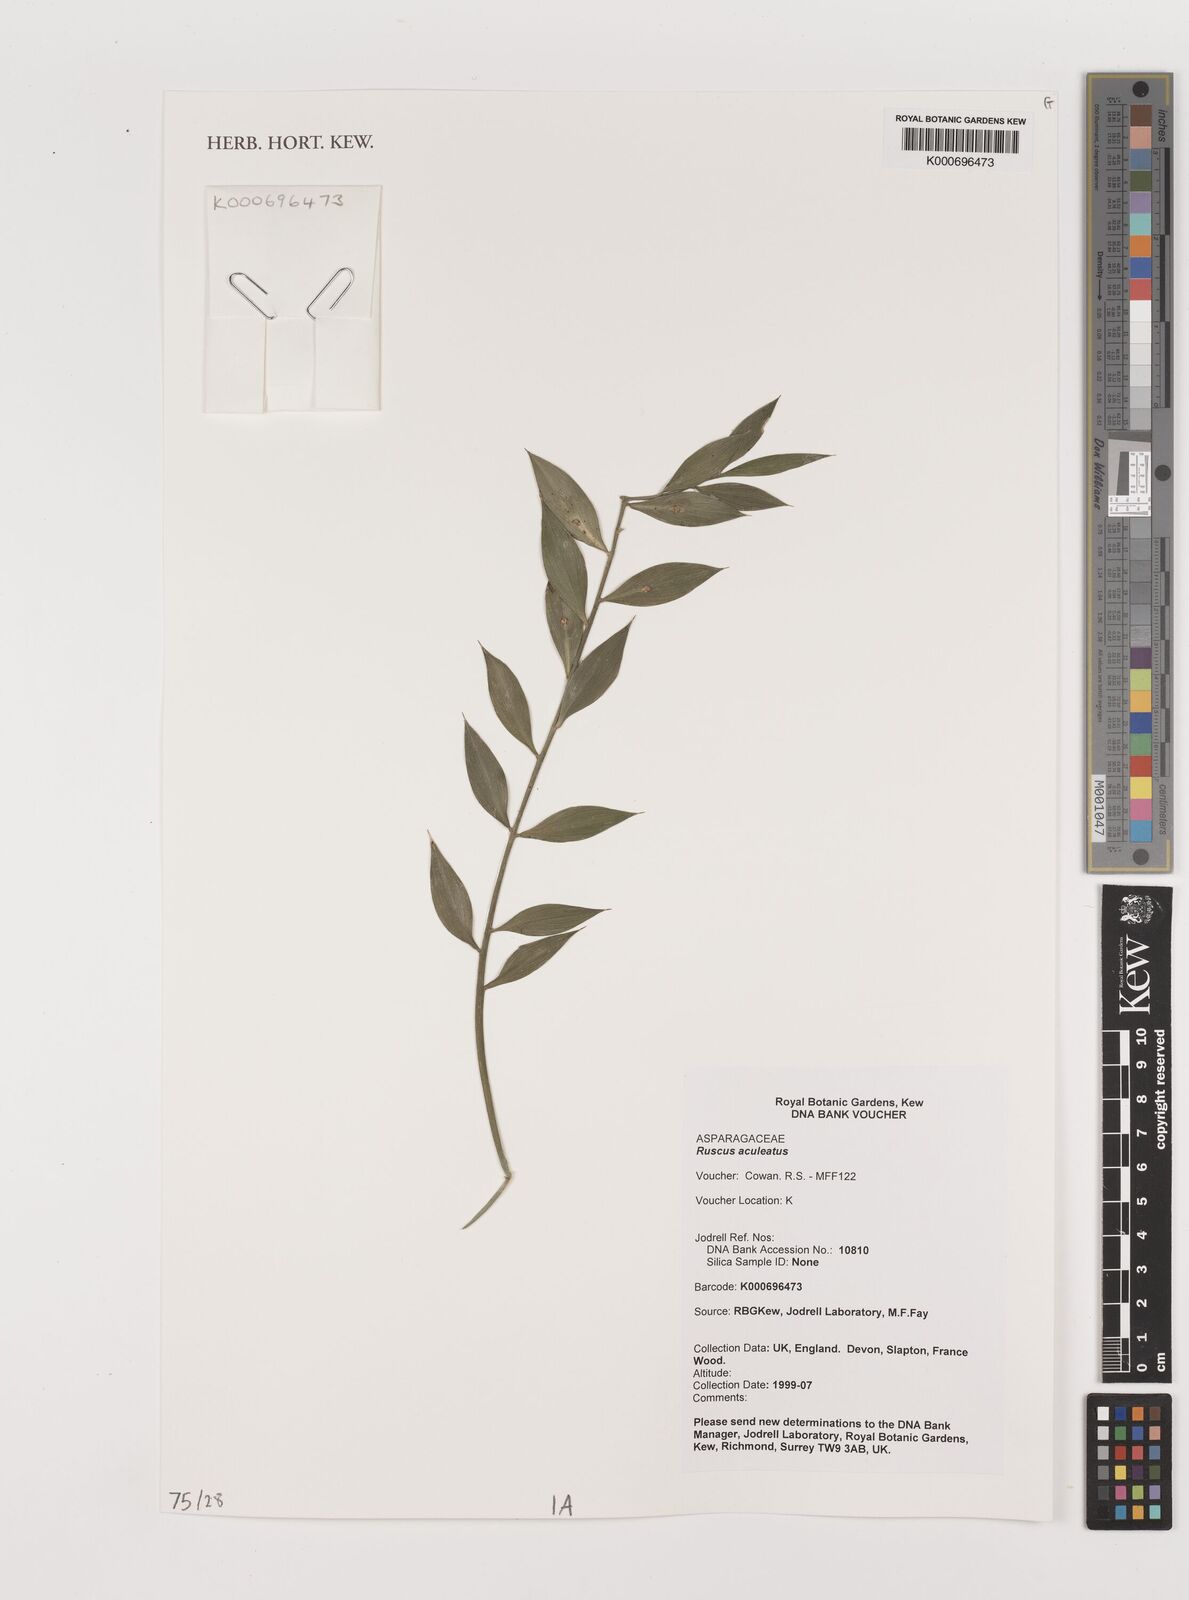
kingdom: Plantae
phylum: Tracheophyta
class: Liliopsida
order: Asparagales
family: Asparagaceae
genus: Ruscus
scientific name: Ruscus aculeatus
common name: Butcher's-broom
